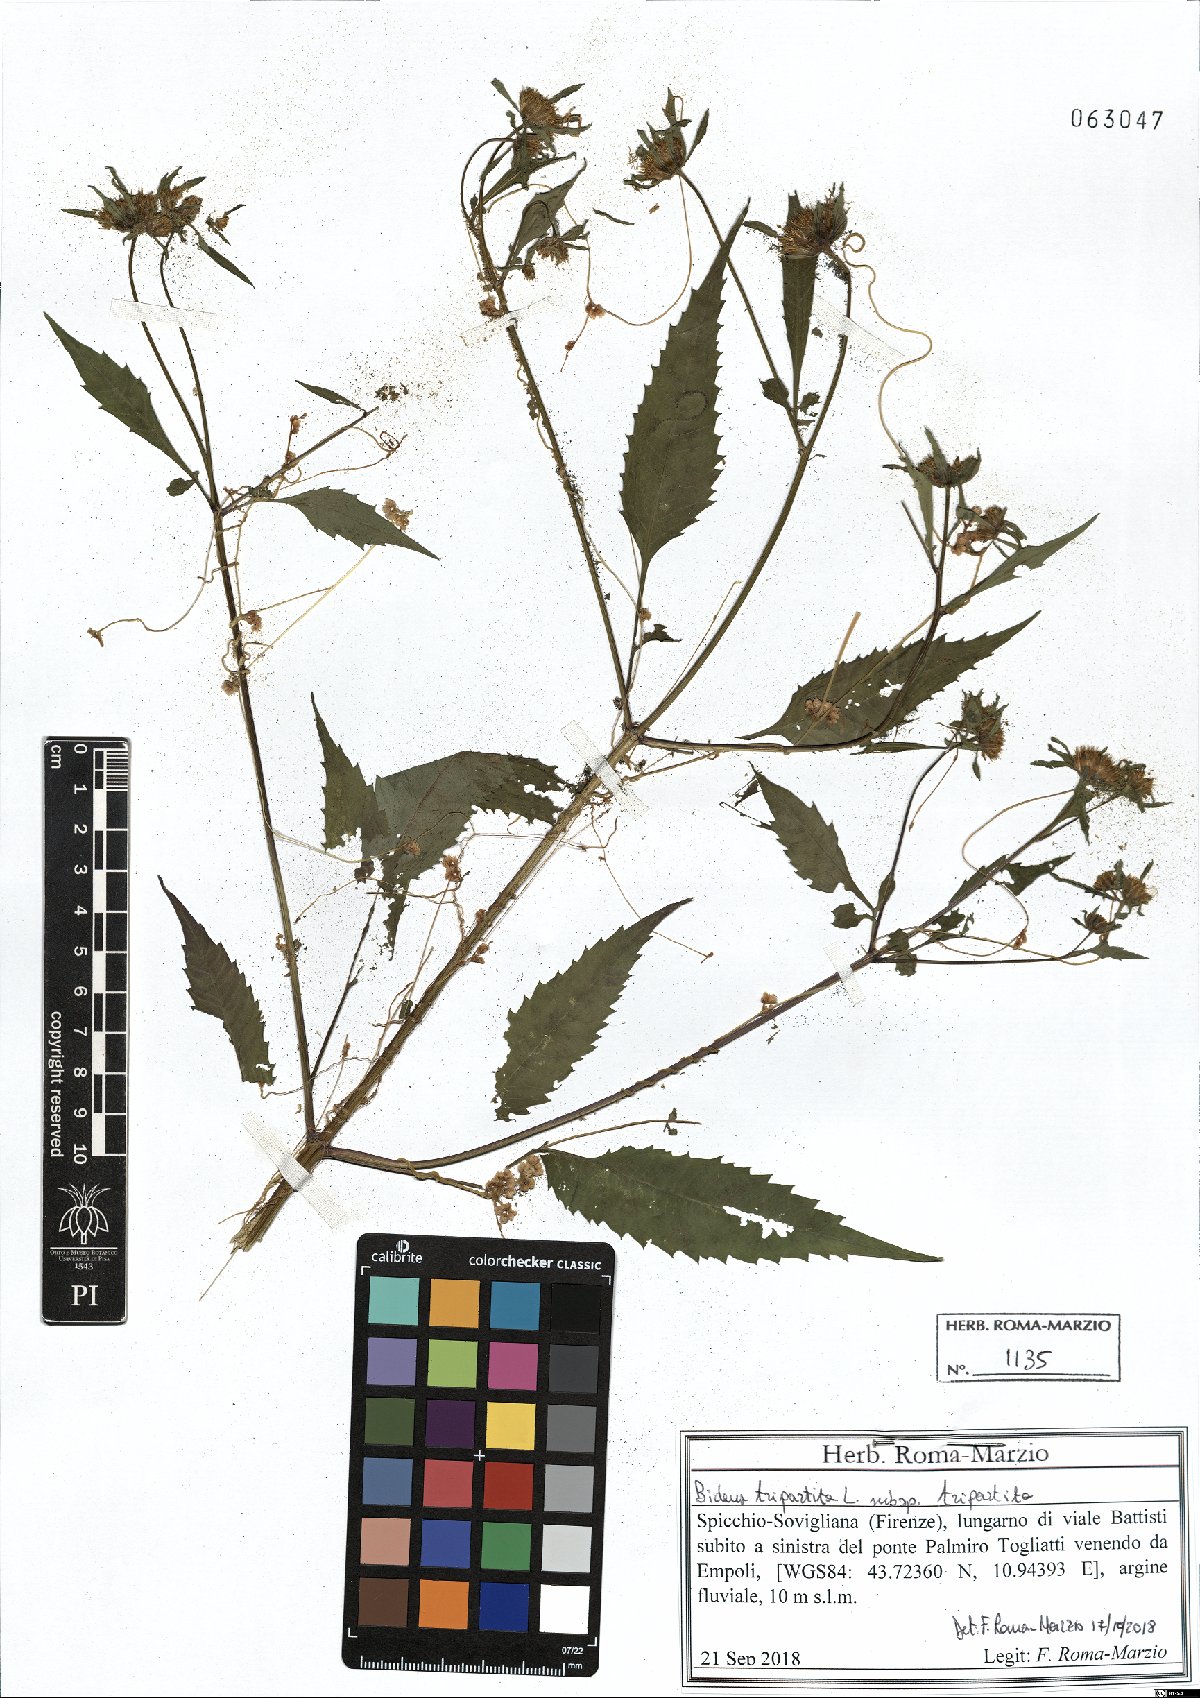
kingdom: Plantae
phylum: Tracheophyta
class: Magnoliopsida
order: Asterales
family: Asteraceae
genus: Bidens
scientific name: Bidens tripartita
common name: Trifid bur-marigold
